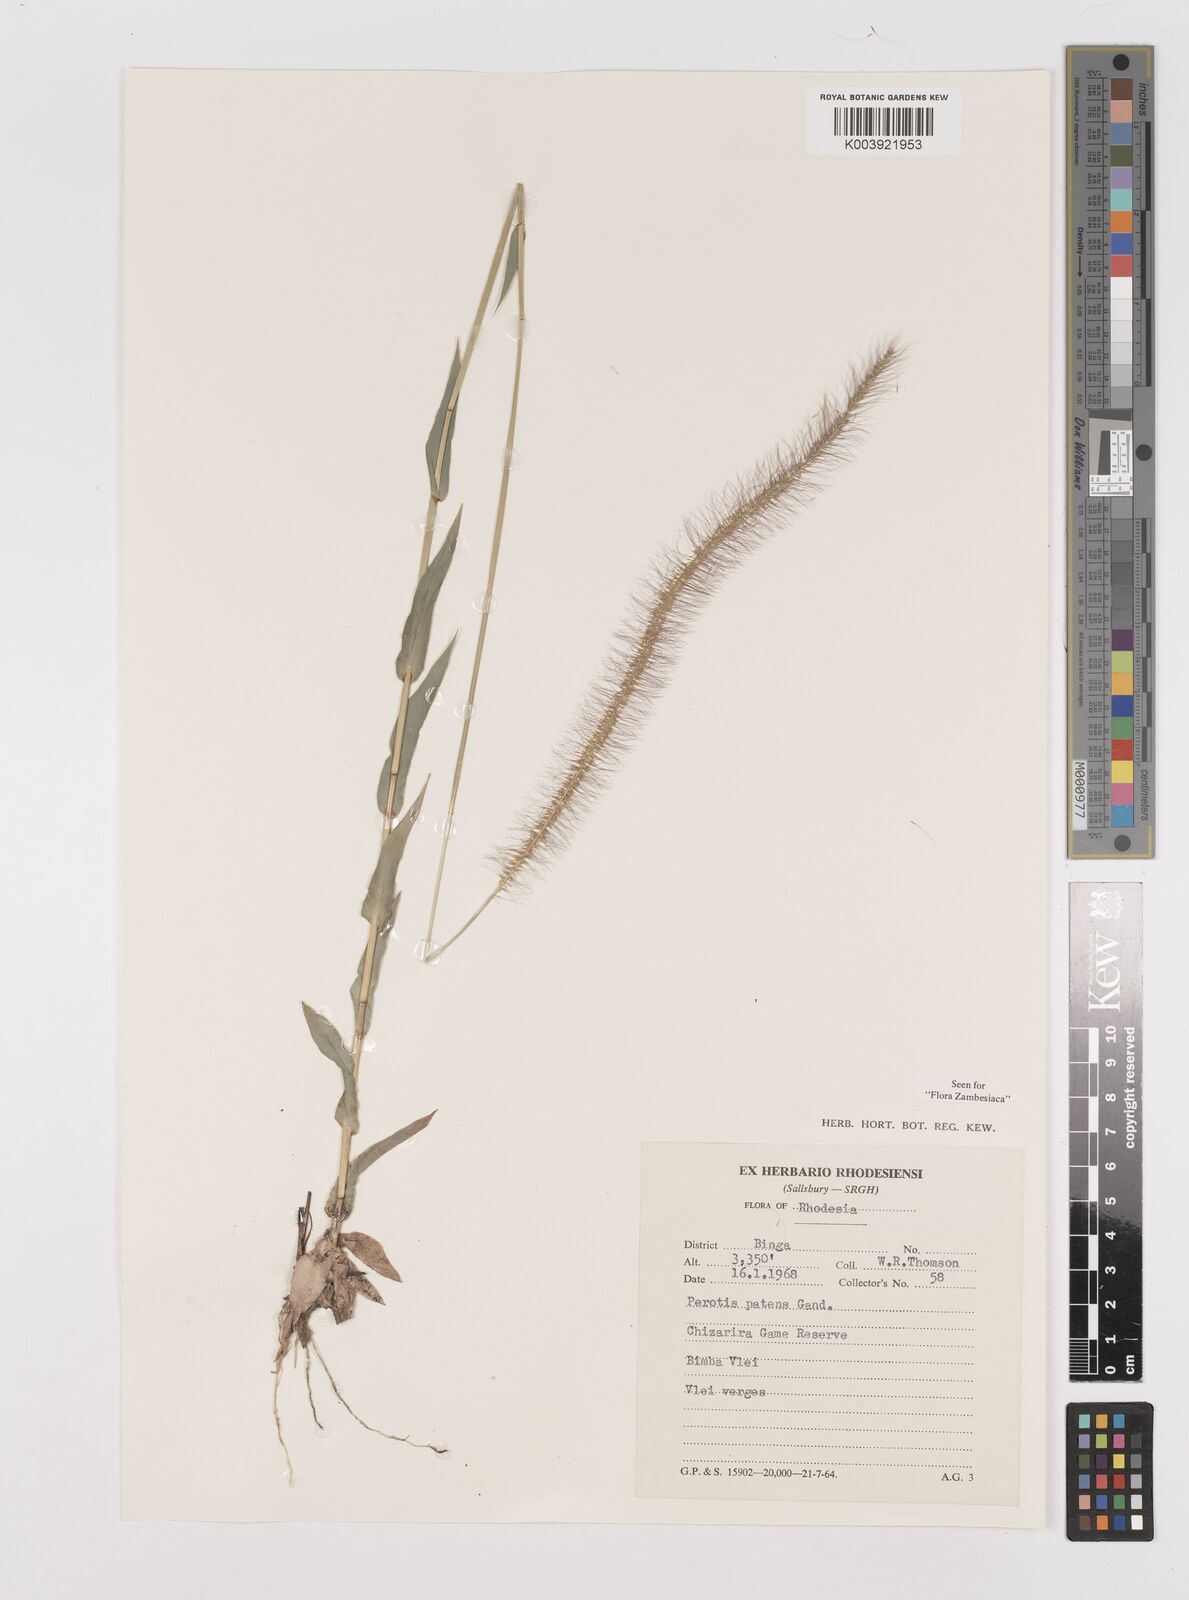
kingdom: Plantae
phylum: Tracheophyta
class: Liliopsida
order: Poales
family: Poaceae
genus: Perotis
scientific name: Perotis patens
